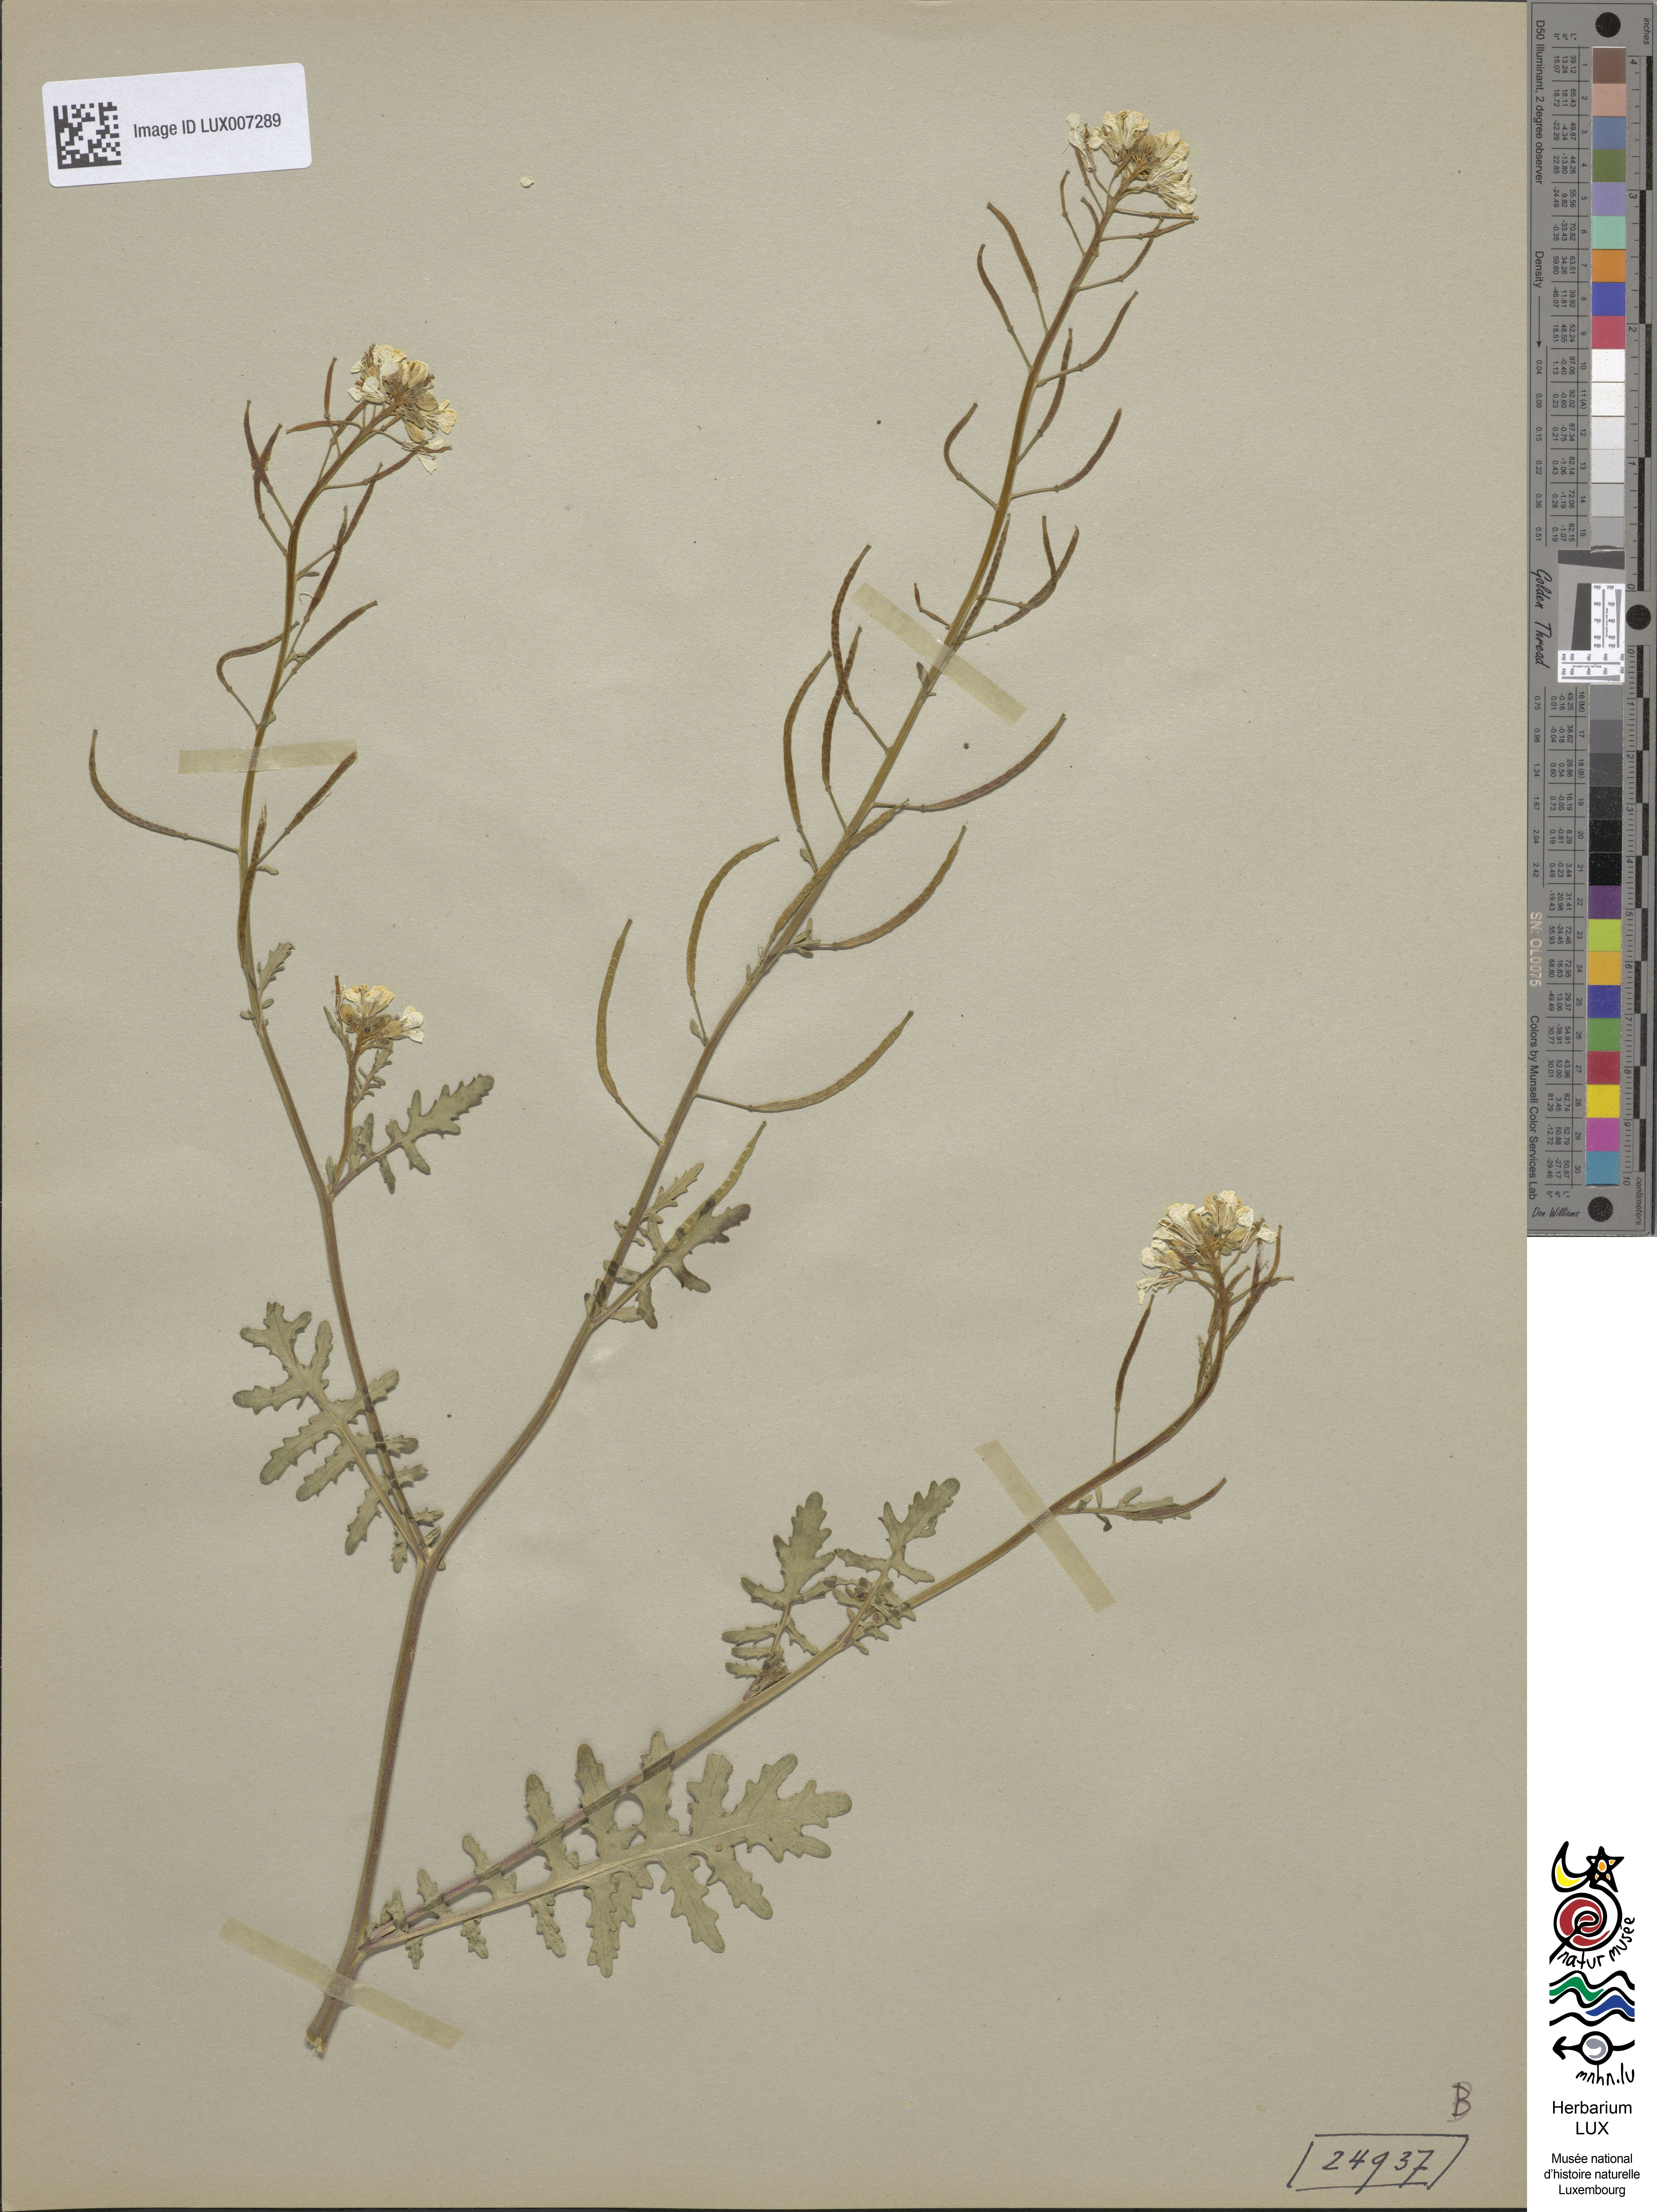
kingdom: Plantae
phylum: Tracheophyta
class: Magnoliopsida
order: Brassicales
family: Brassicaceae
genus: Erucastrum
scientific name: Erucastrum gallicum
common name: Hairy rocket
